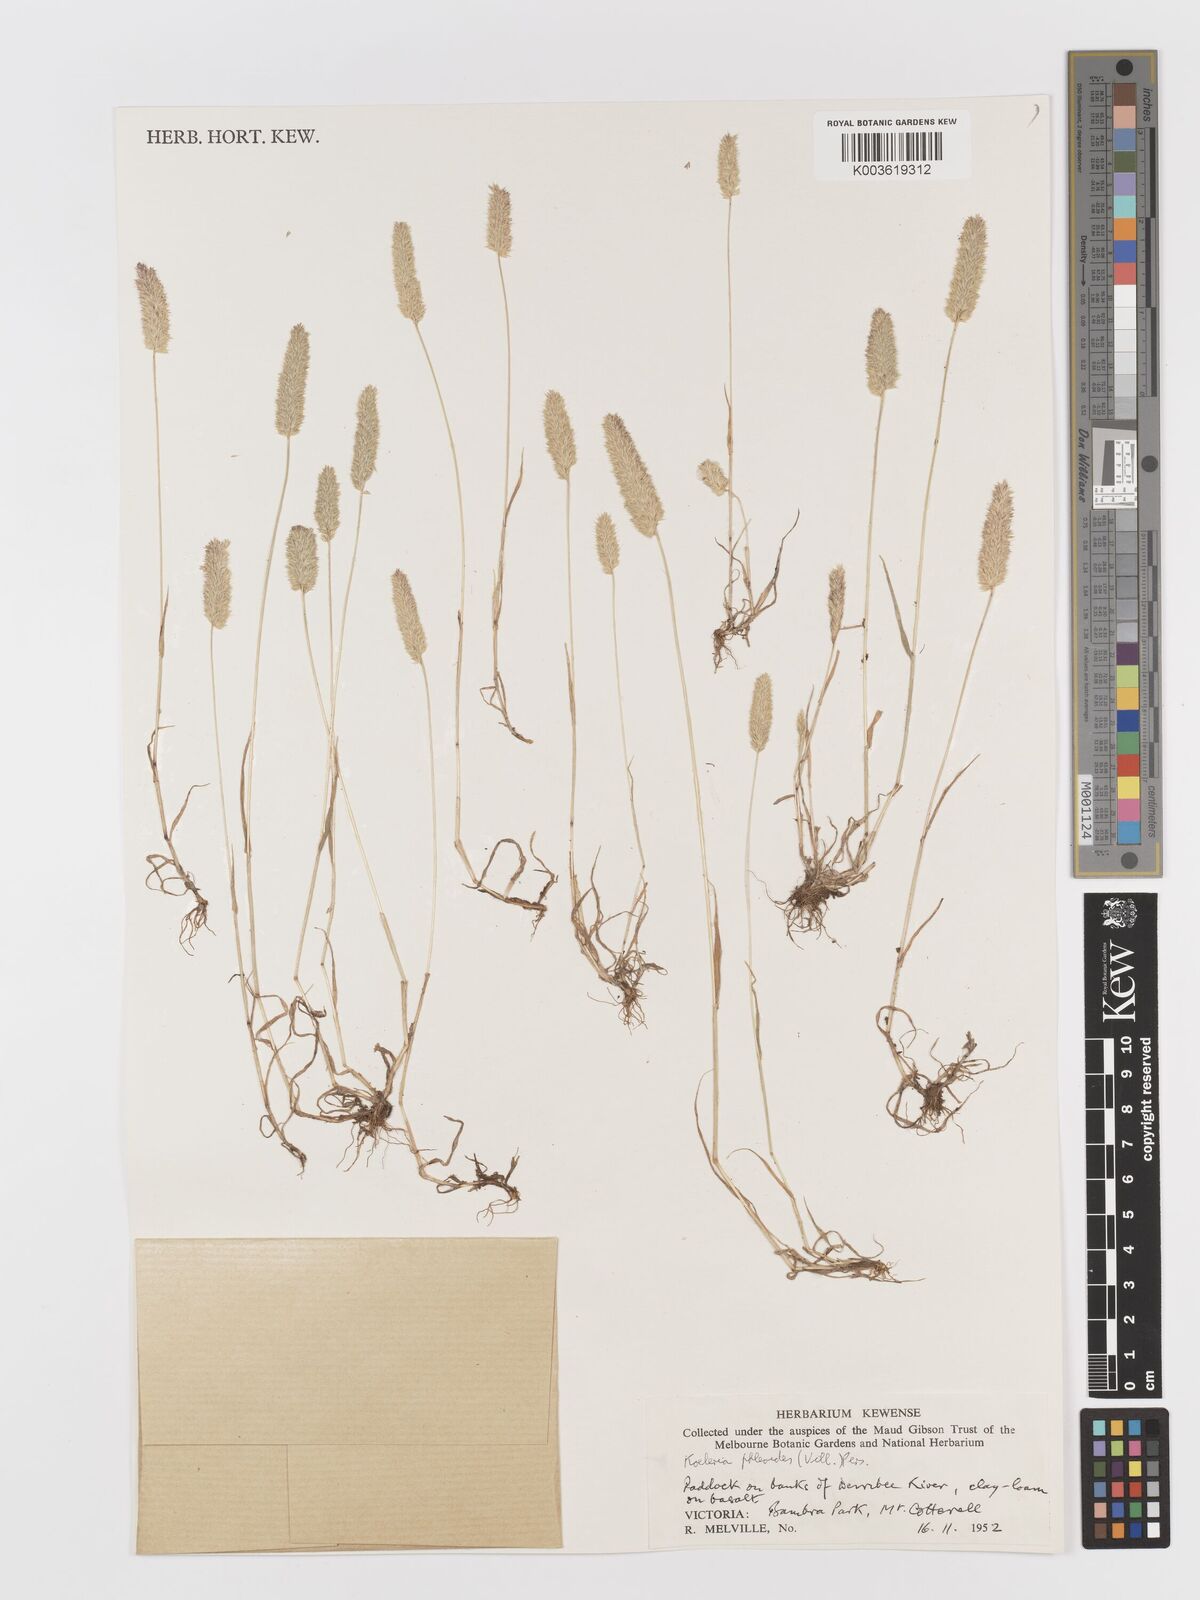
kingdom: Plantae
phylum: Tracheophyta
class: Liliopsida
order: Poales
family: Poaceae
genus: Rostraria
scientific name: Rostraria cristata
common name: Mediterranean hair-grass
